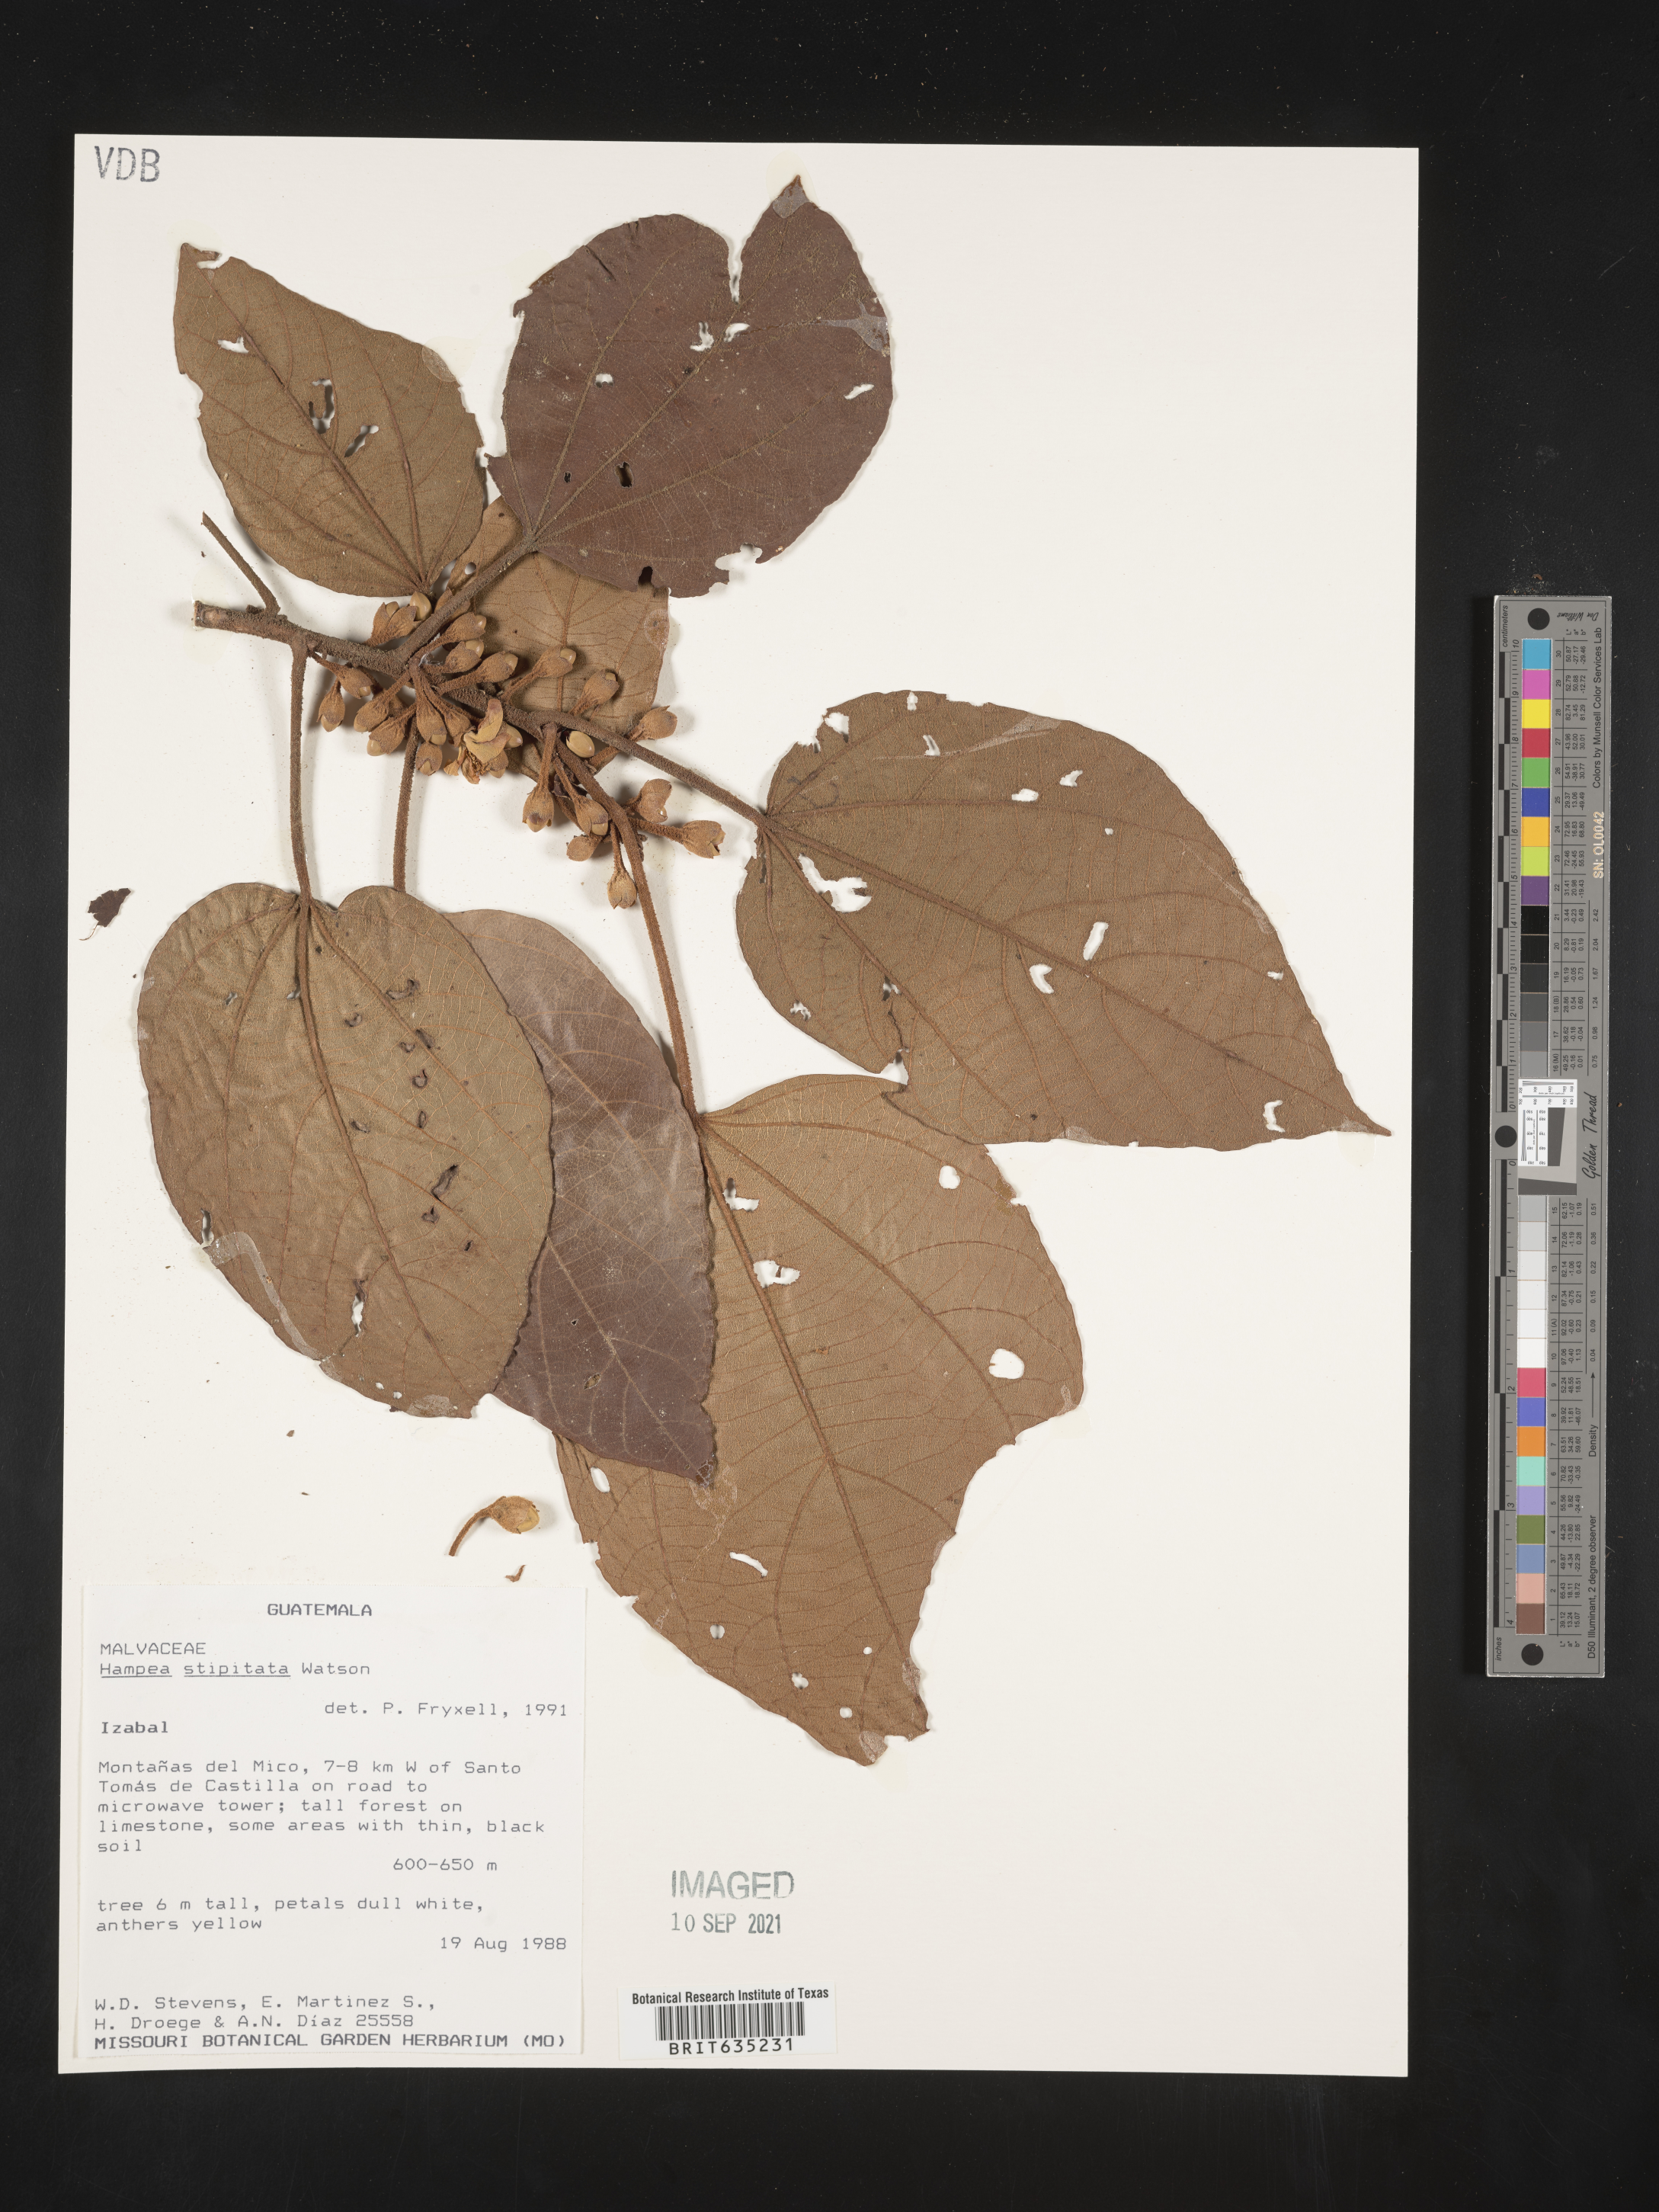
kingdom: Plantae
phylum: Tracheophyta
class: Magnoliopsida
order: Malvales
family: Malvaceae
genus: Hampea
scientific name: Hampea
